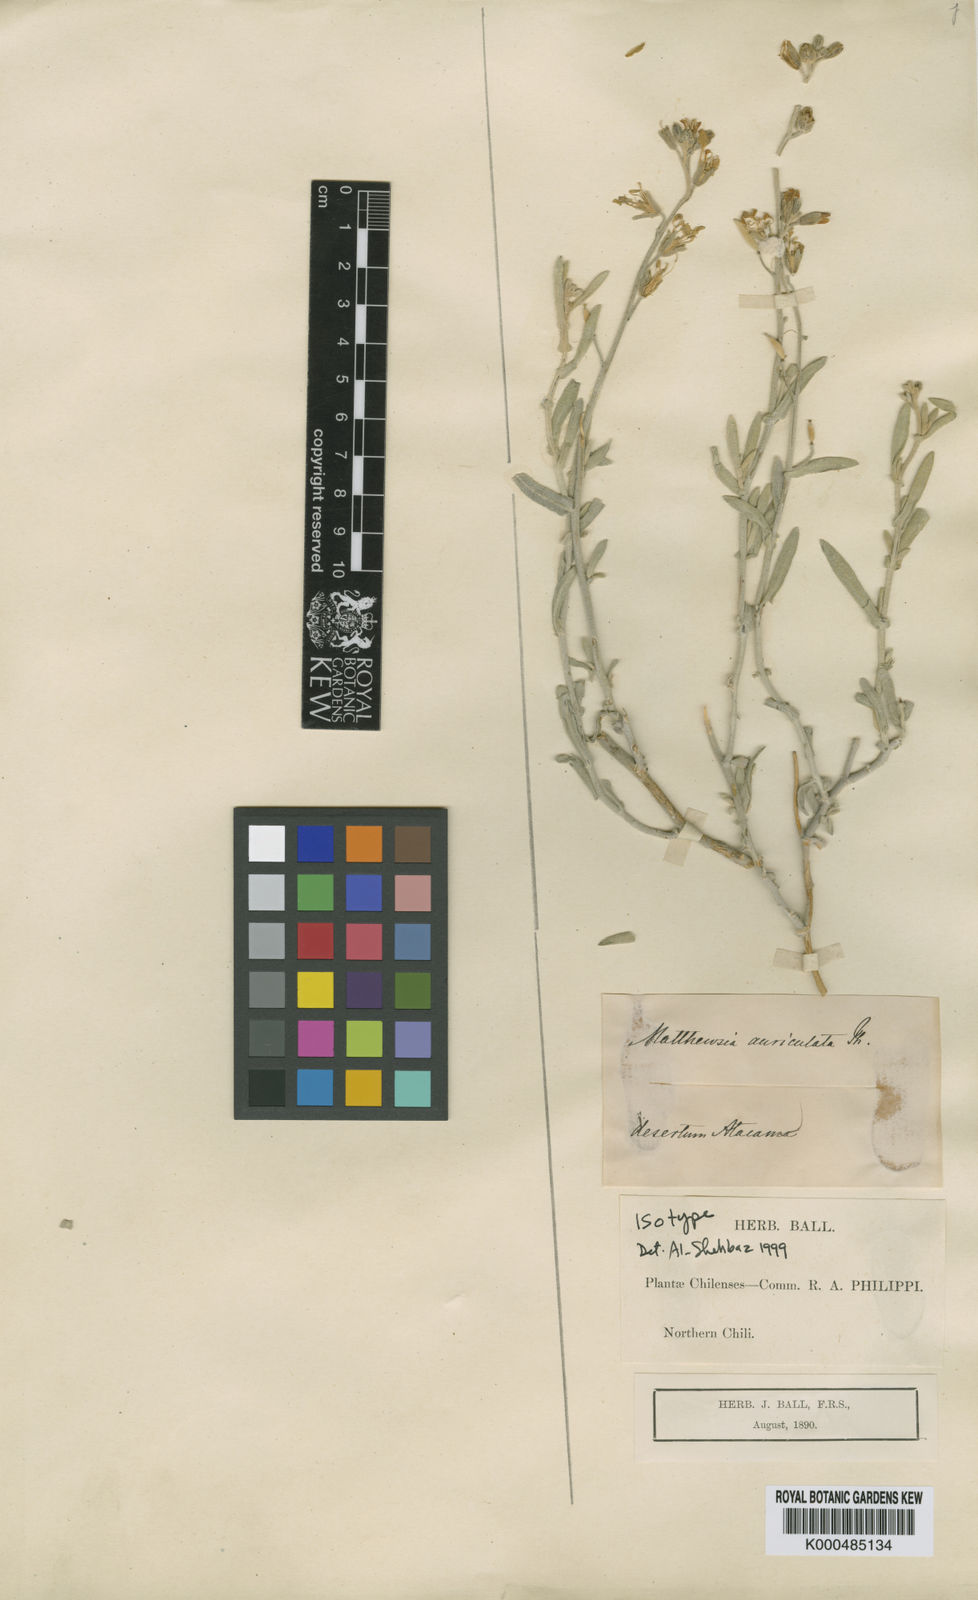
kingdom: Plantae
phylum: Tracheophyta
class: Magnoliopsida
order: Brassicales
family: Brassicaceae
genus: Mathewsia
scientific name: Mathewsia auriculata
